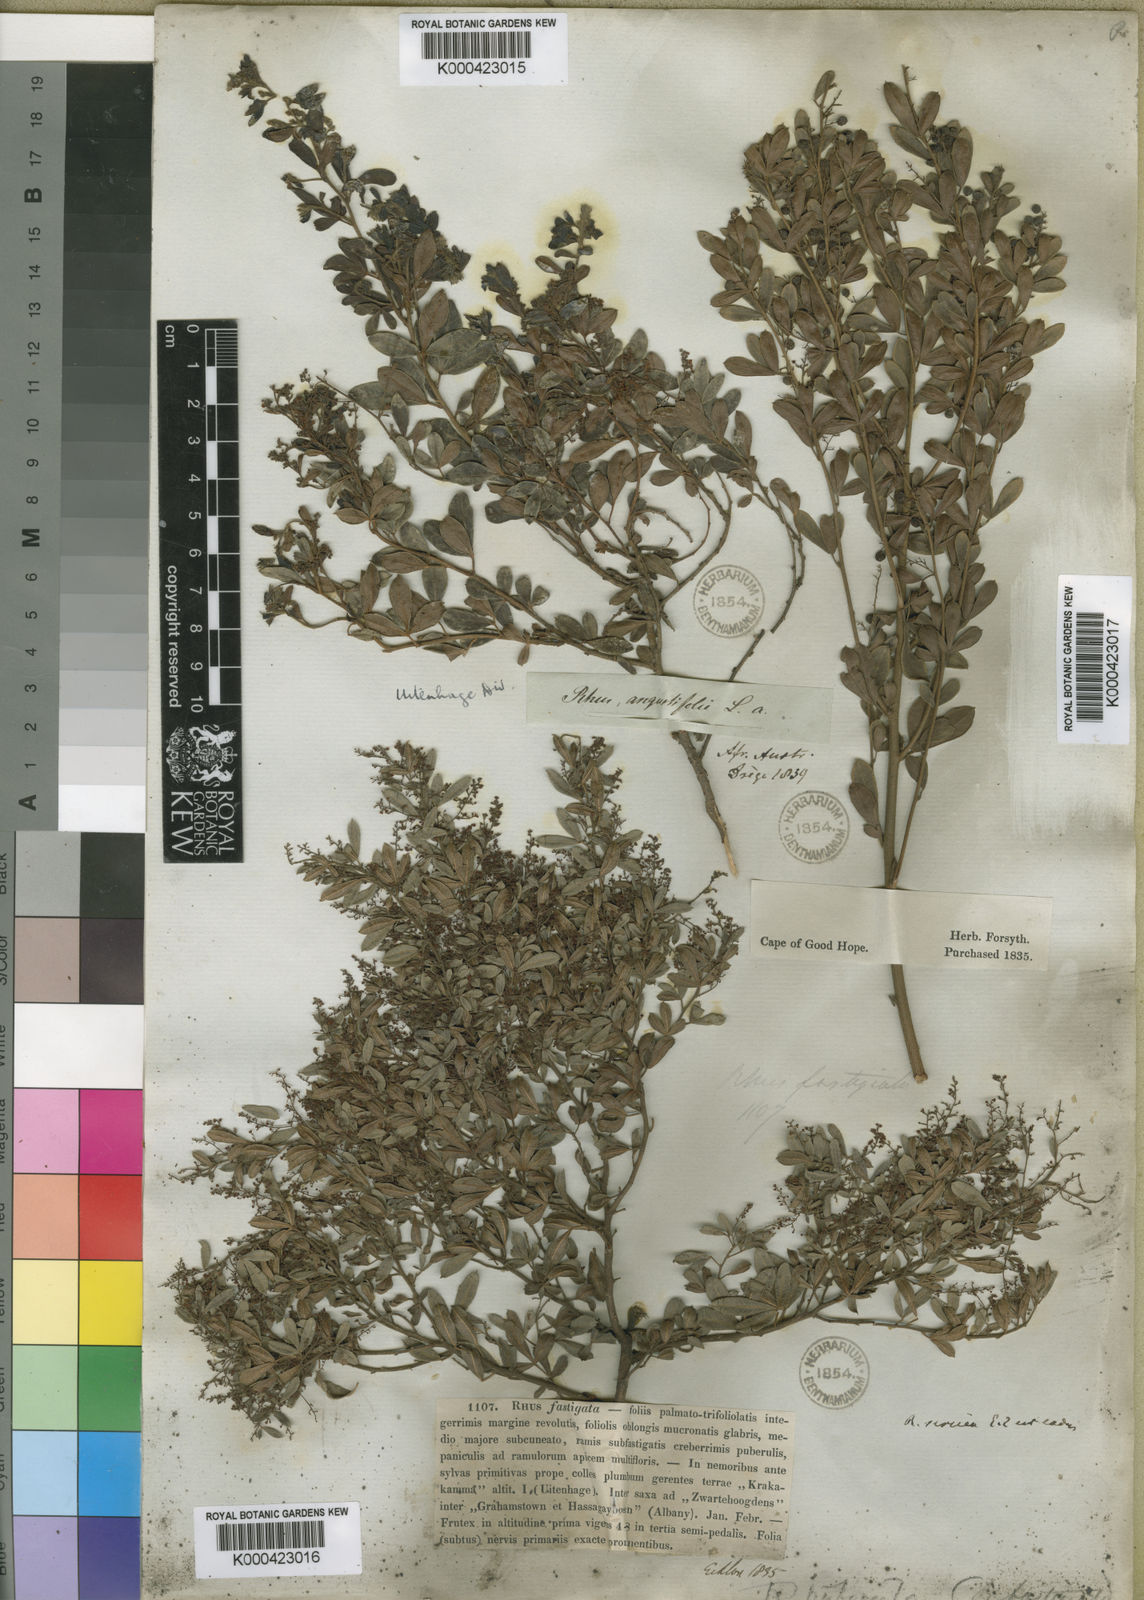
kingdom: Plantae
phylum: Tracheophyta
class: Magnoliopsida
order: Sapindales
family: Anacardiaceae
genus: Searsia
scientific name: Searsia fastigiata
